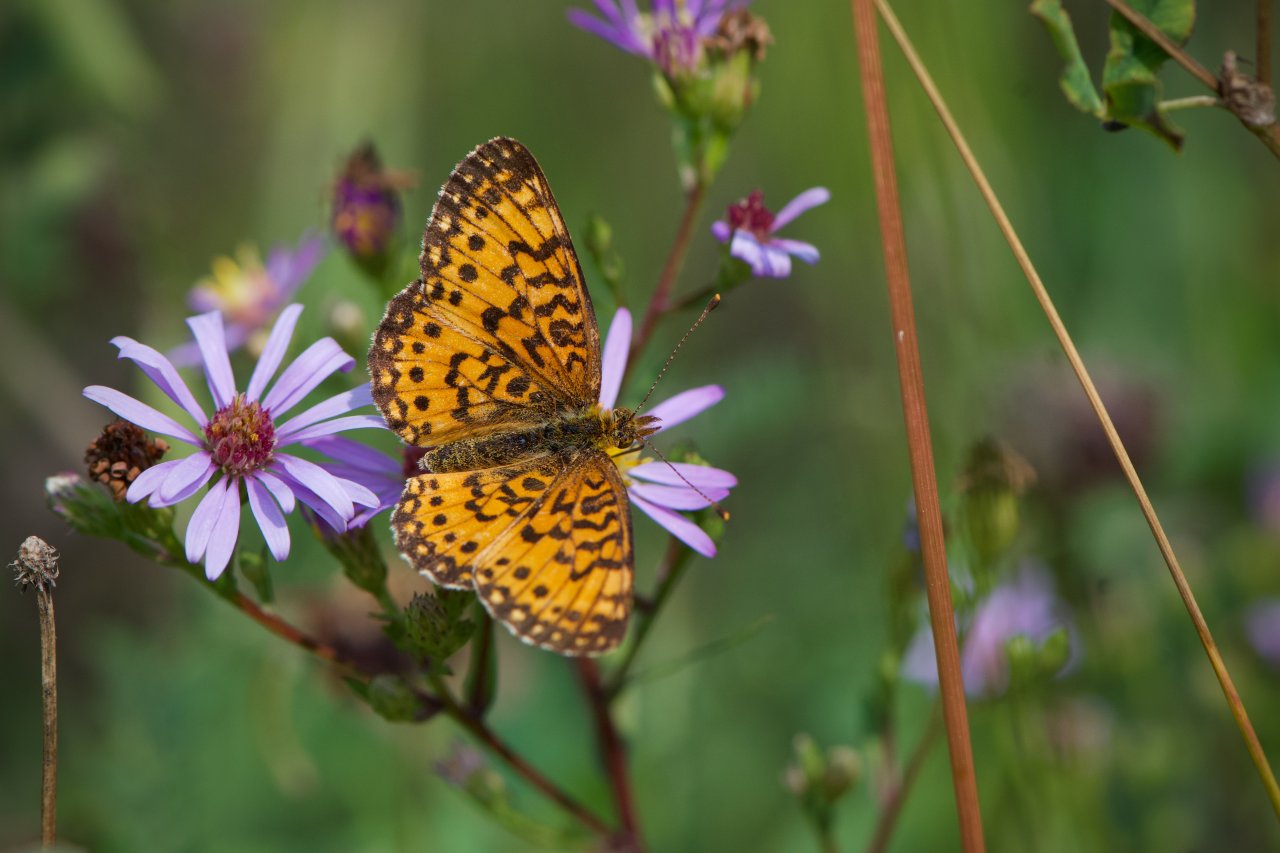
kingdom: Animalia
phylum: Arthropoda
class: Insecta
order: Lepidoptera
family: Nymphalidae
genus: Boloria
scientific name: Boloria selene
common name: Silver-bordered Fritillary
